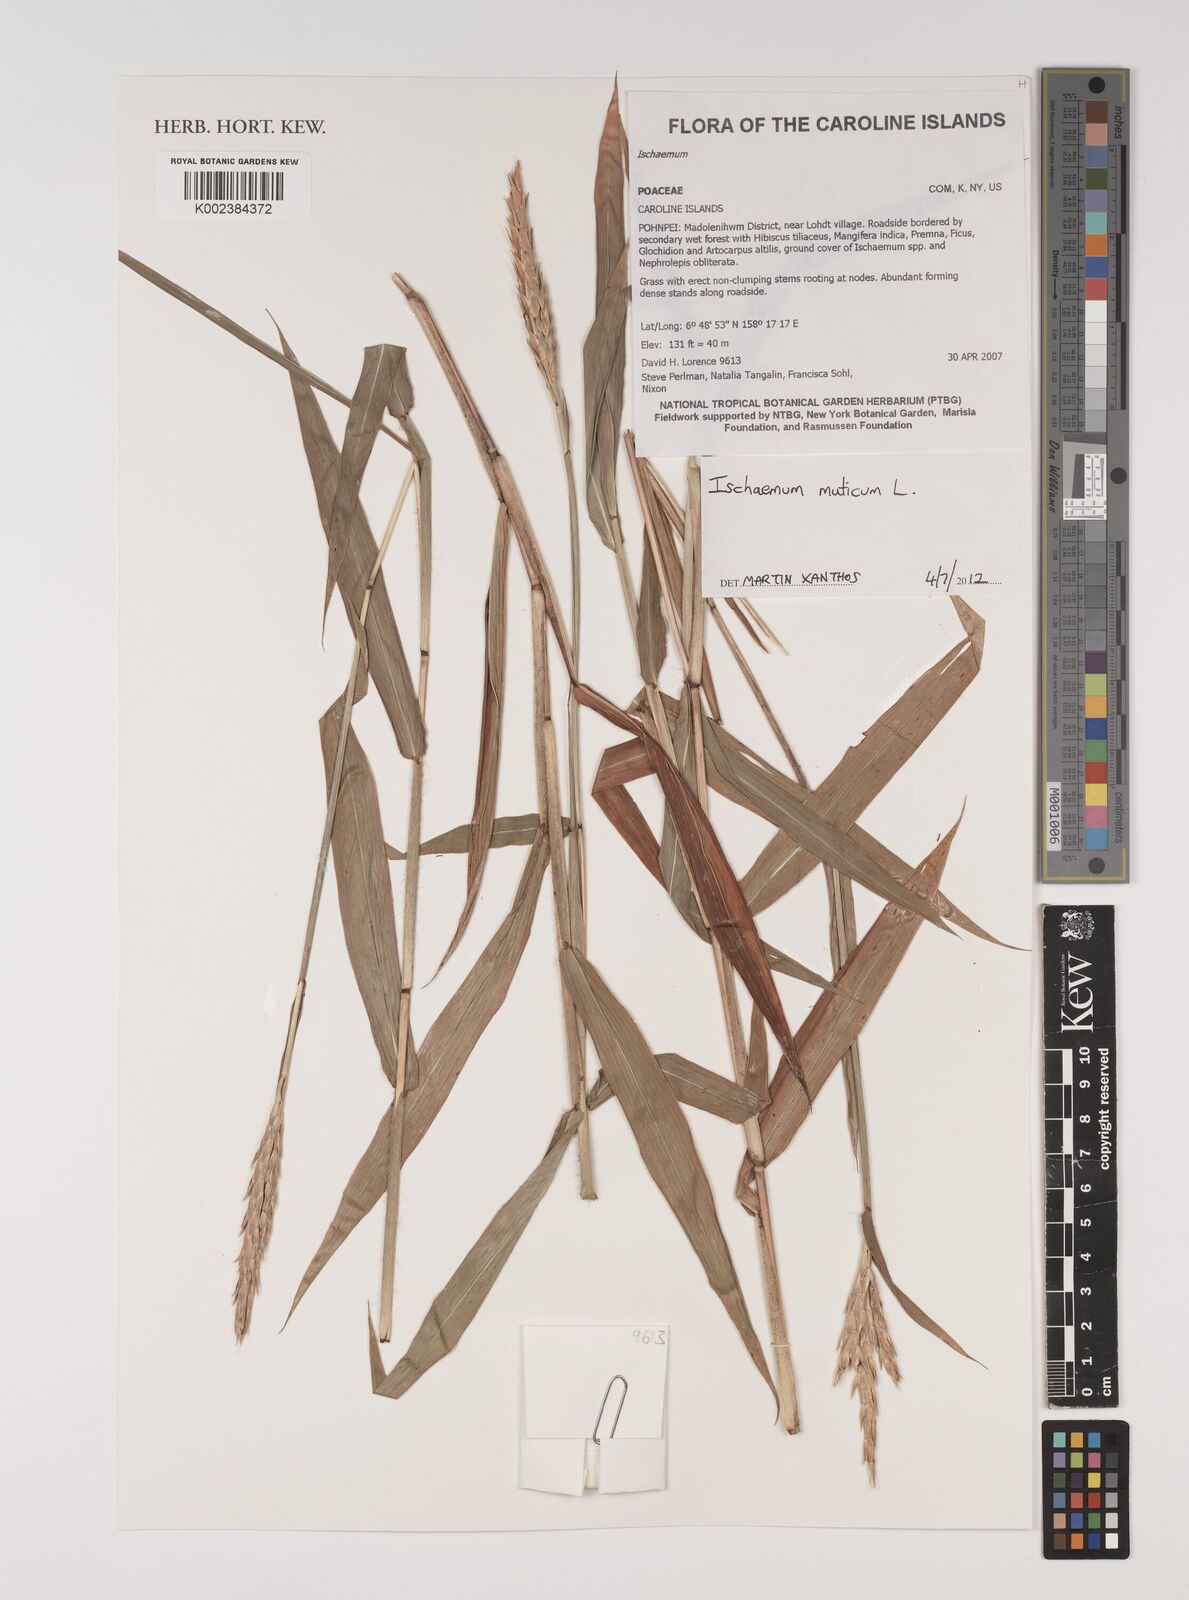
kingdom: Plantae
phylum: Tracheophyta
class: Liliopsida
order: Poales
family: Poaceae
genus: Ischaemum
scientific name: Ischaemum muticum
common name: Drought grass
